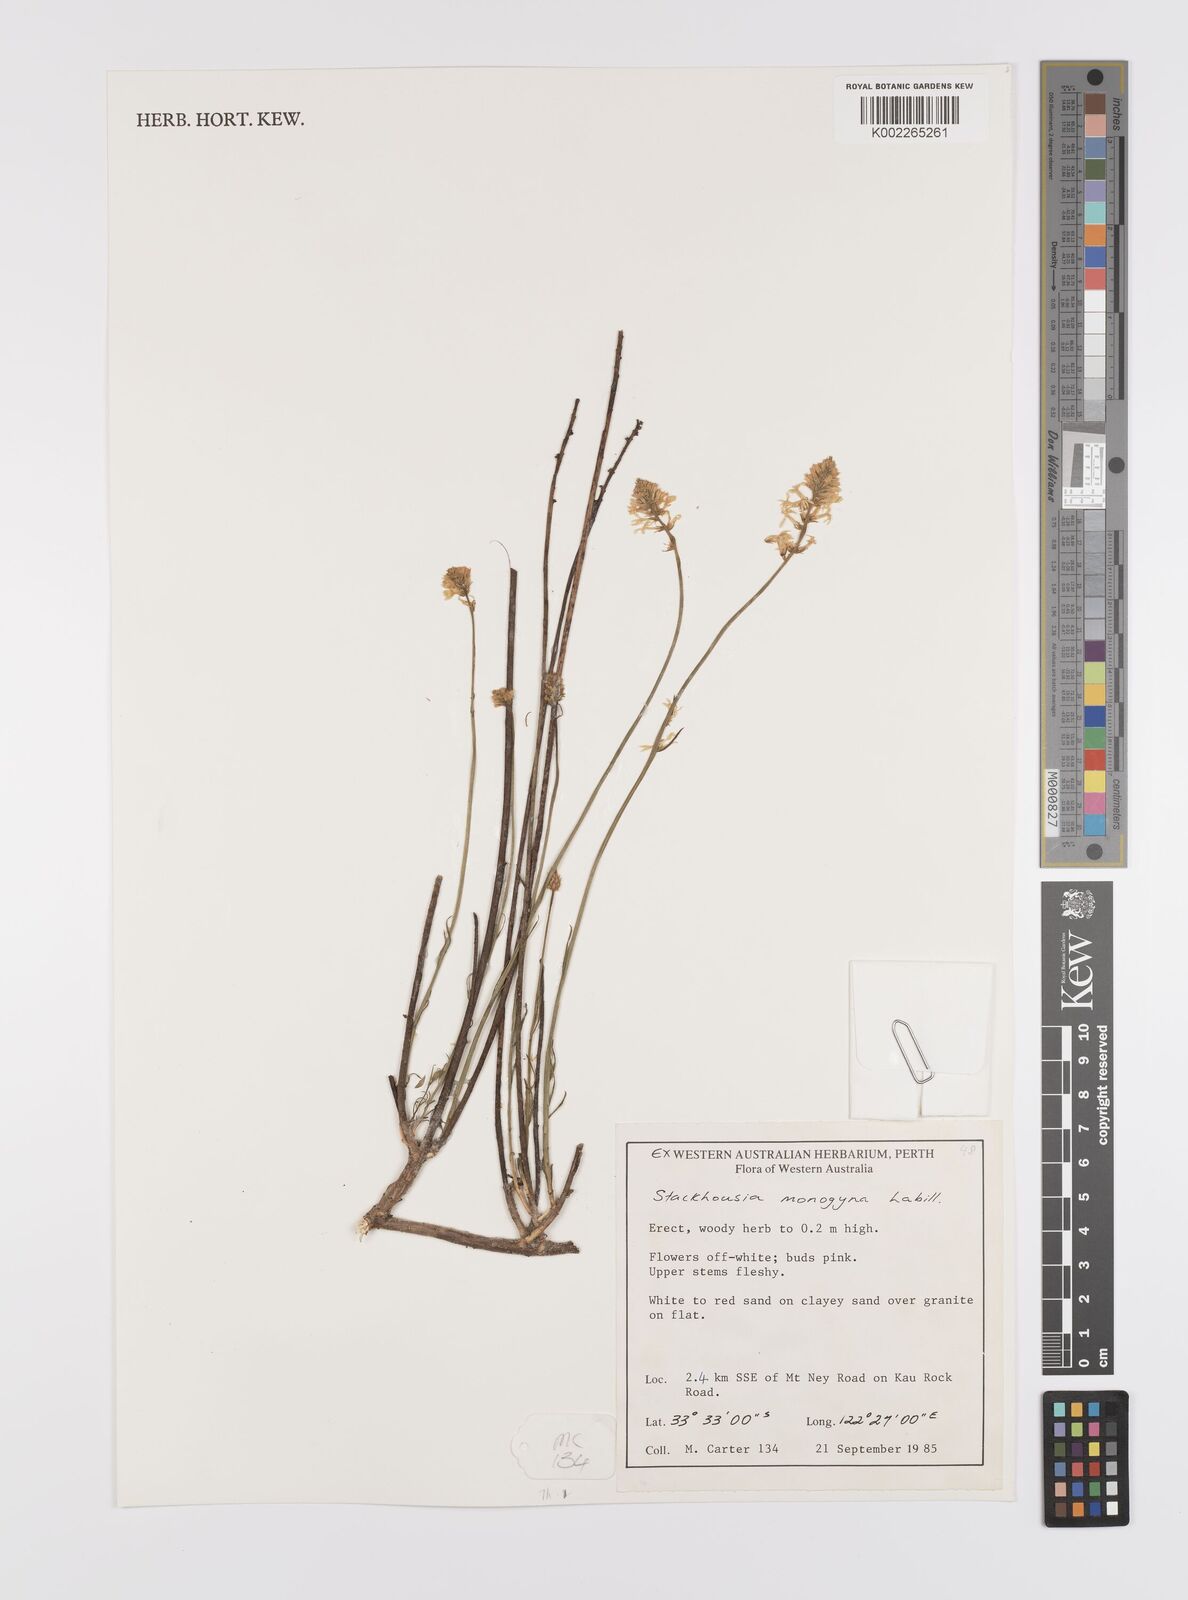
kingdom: Plantae
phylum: Tracheophyta
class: Magnoliopsida
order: Celastrales
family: Celastraceae
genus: Stackhousia
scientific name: Stackhousia monogyna
